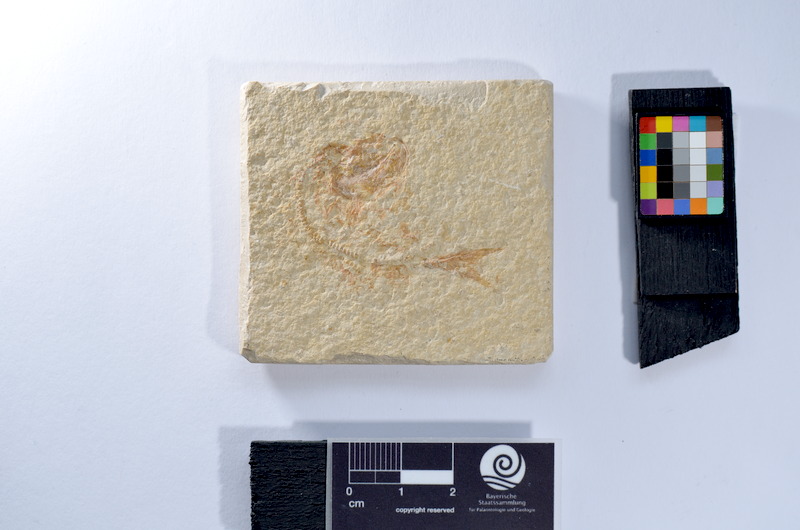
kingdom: Animalia
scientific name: Animalia
